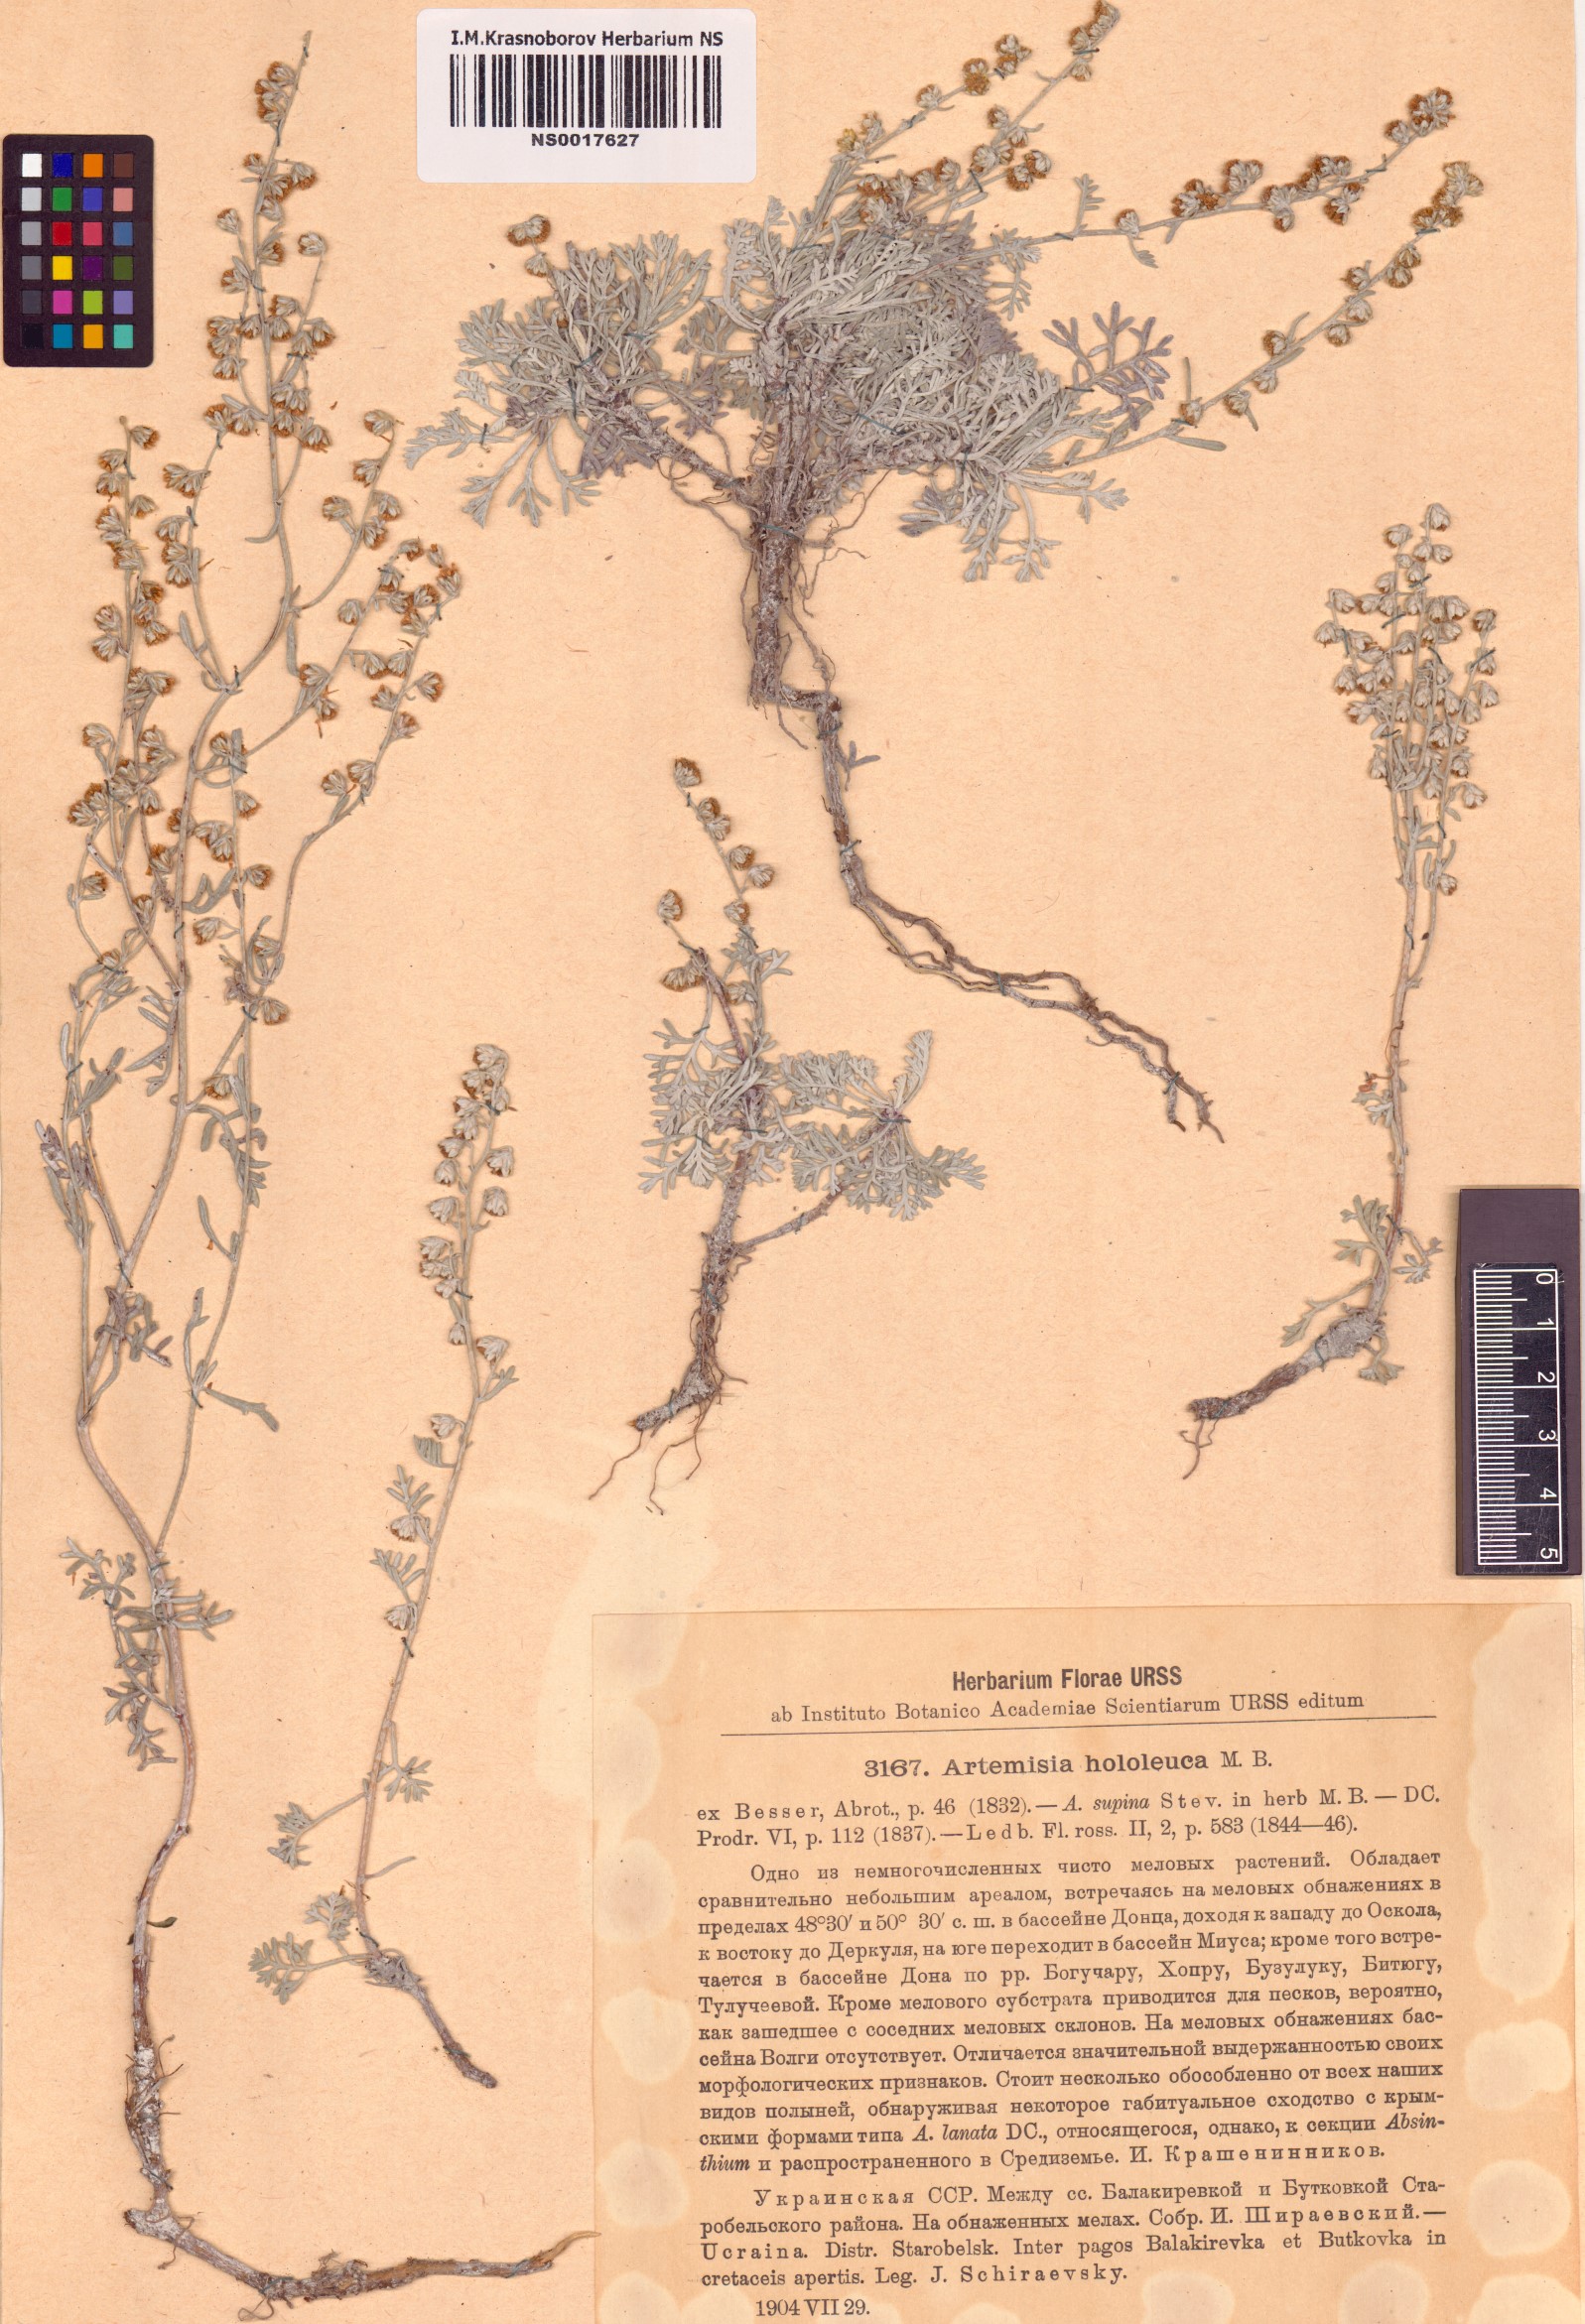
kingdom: Plantae
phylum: Tracheophyta
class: Magnoliopsida
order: Asterales
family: Asteraceae
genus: Artemisia
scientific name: Artemisia hololeuca
